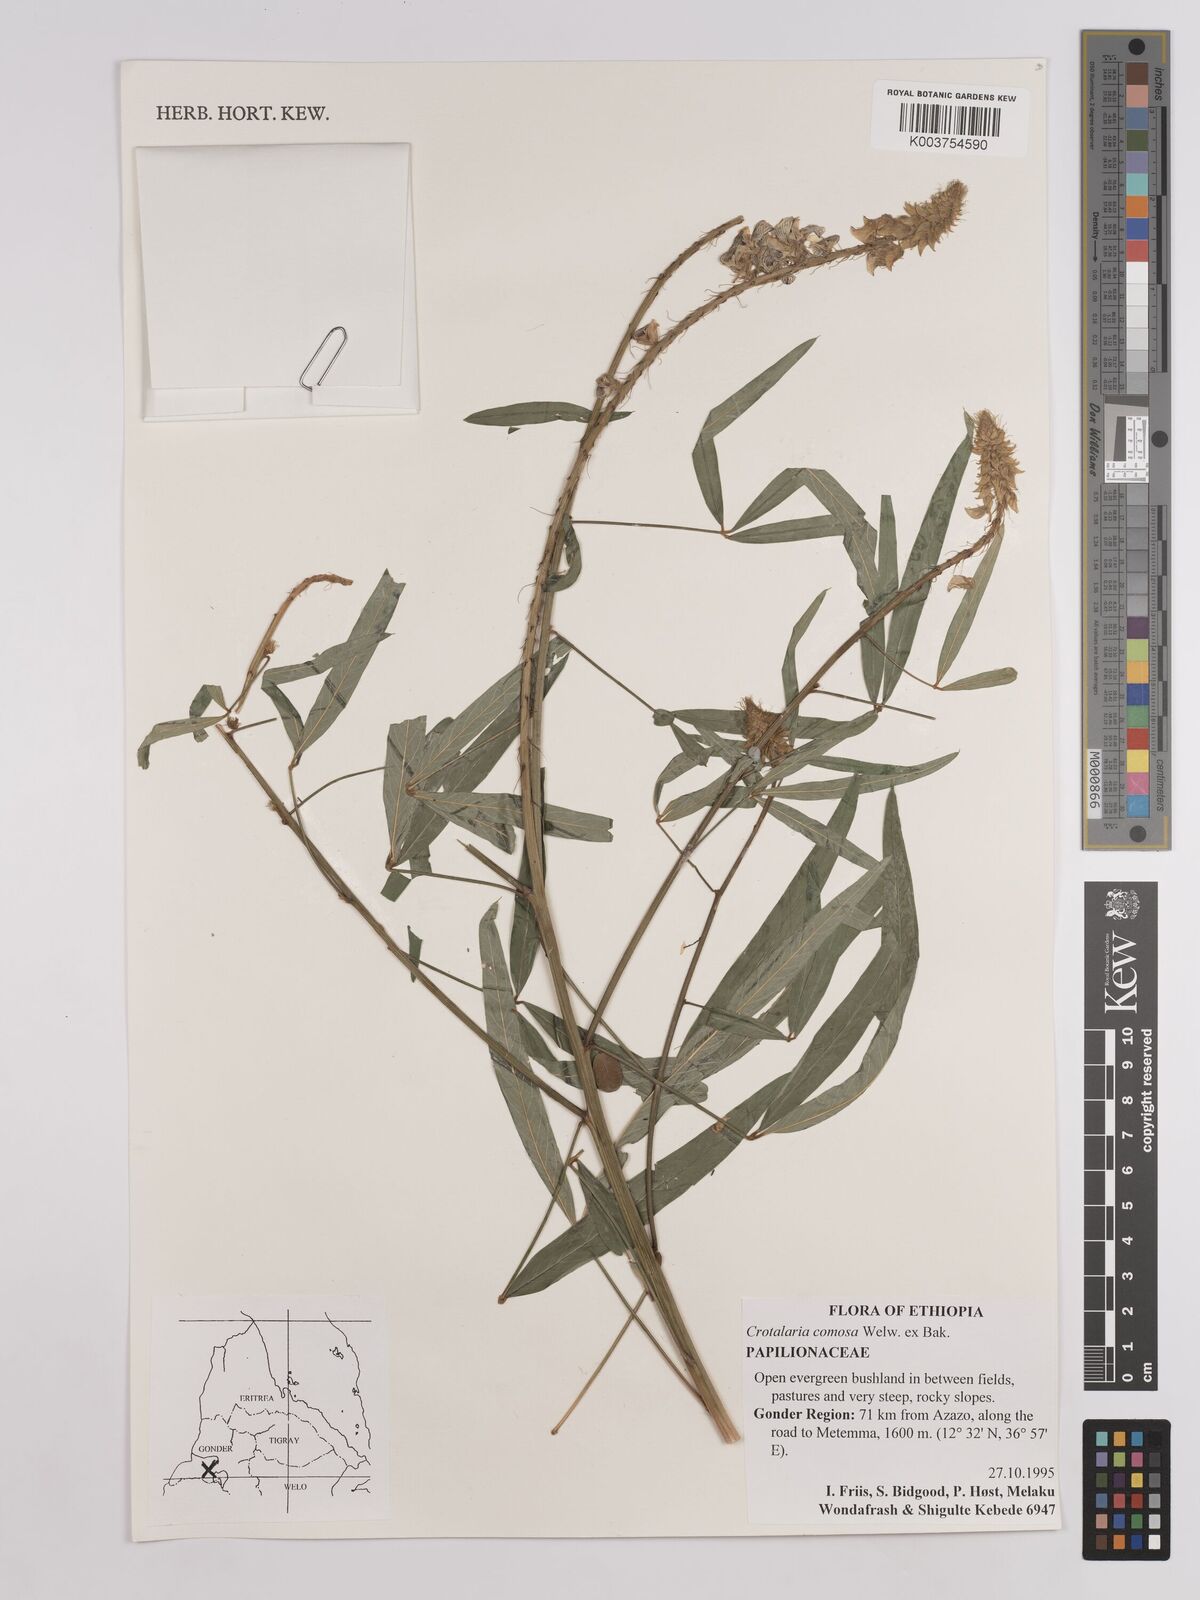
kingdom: Plantae
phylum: Tracheophyta
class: Magnoliopsida
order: Fabales
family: Fabaceae
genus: Crotalaria
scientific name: Crotalaria comosa
